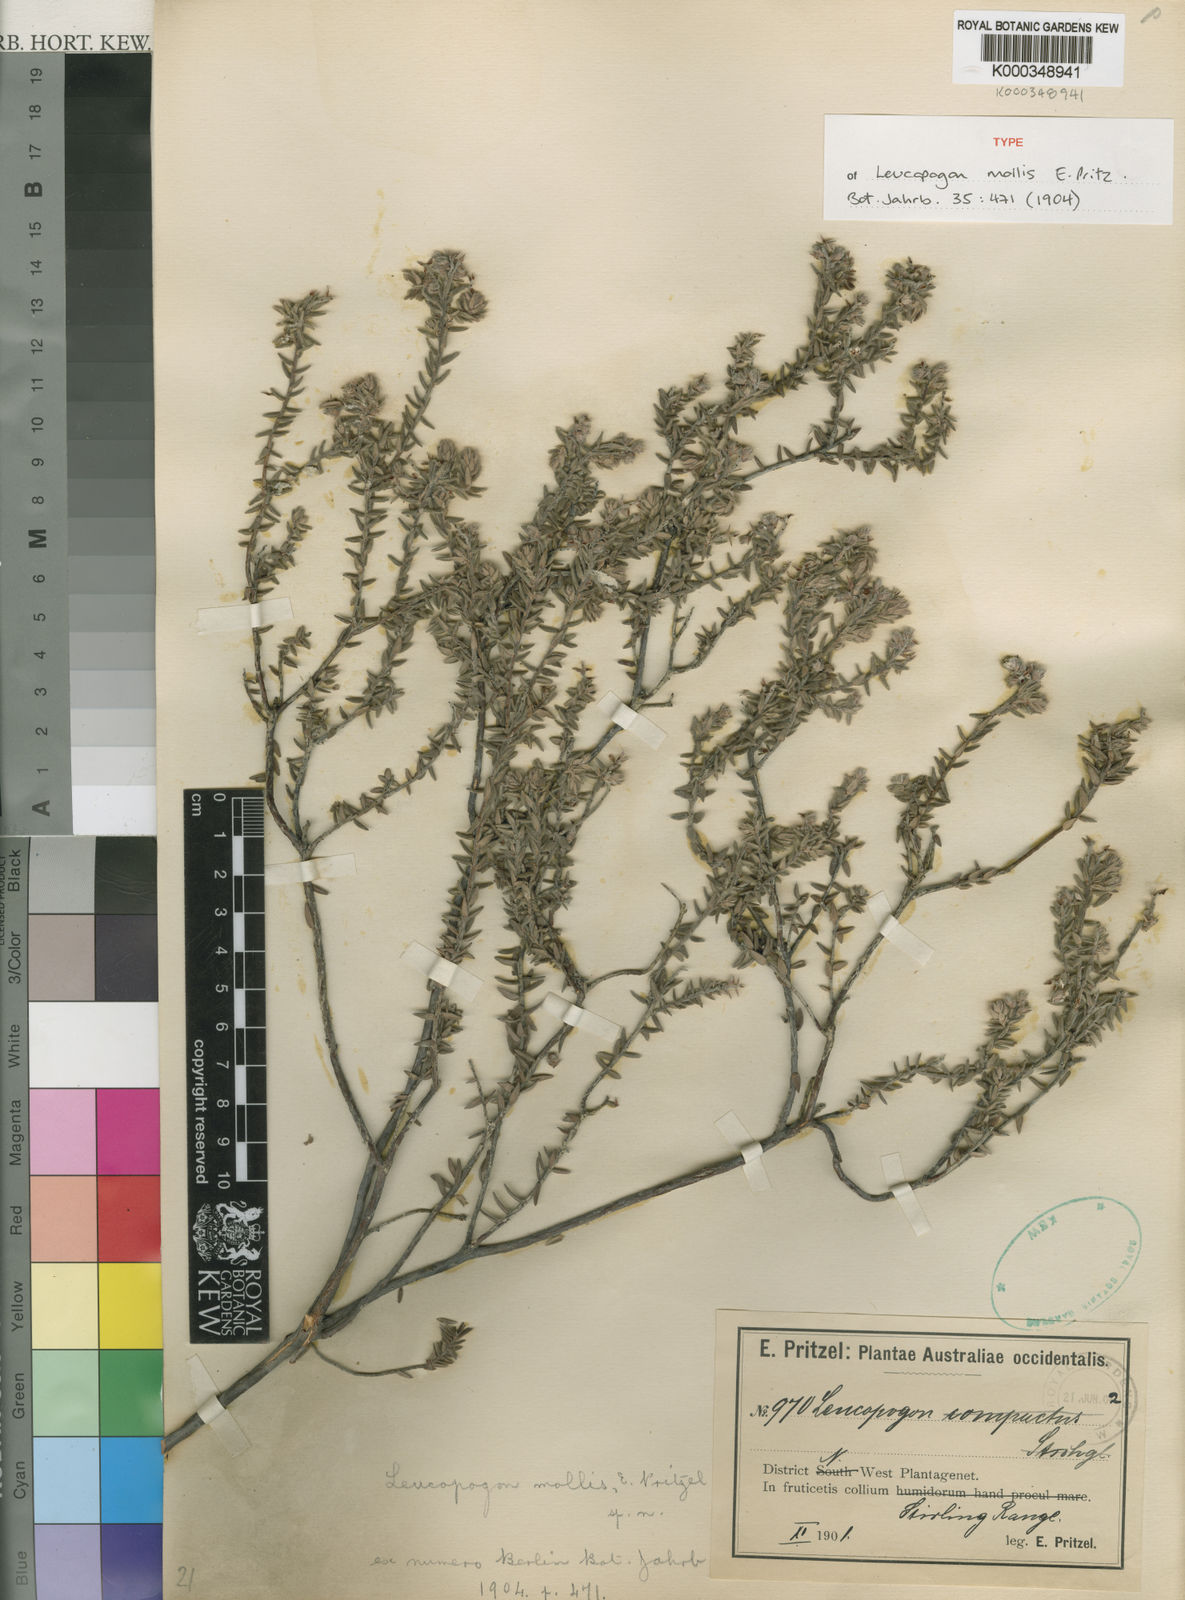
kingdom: Plantae
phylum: Tracheophyta
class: Magnoliopsida
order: Ericales
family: Ericaceae
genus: Leucopogon
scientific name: Leucopogon mollis
